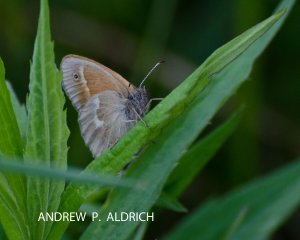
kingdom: Animalia
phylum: Arthropoda
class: Insecta
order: Lepidoptera
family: Nymphalidae
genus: Coenonympha
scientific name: Coenonympha tullia
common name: Large Heath
